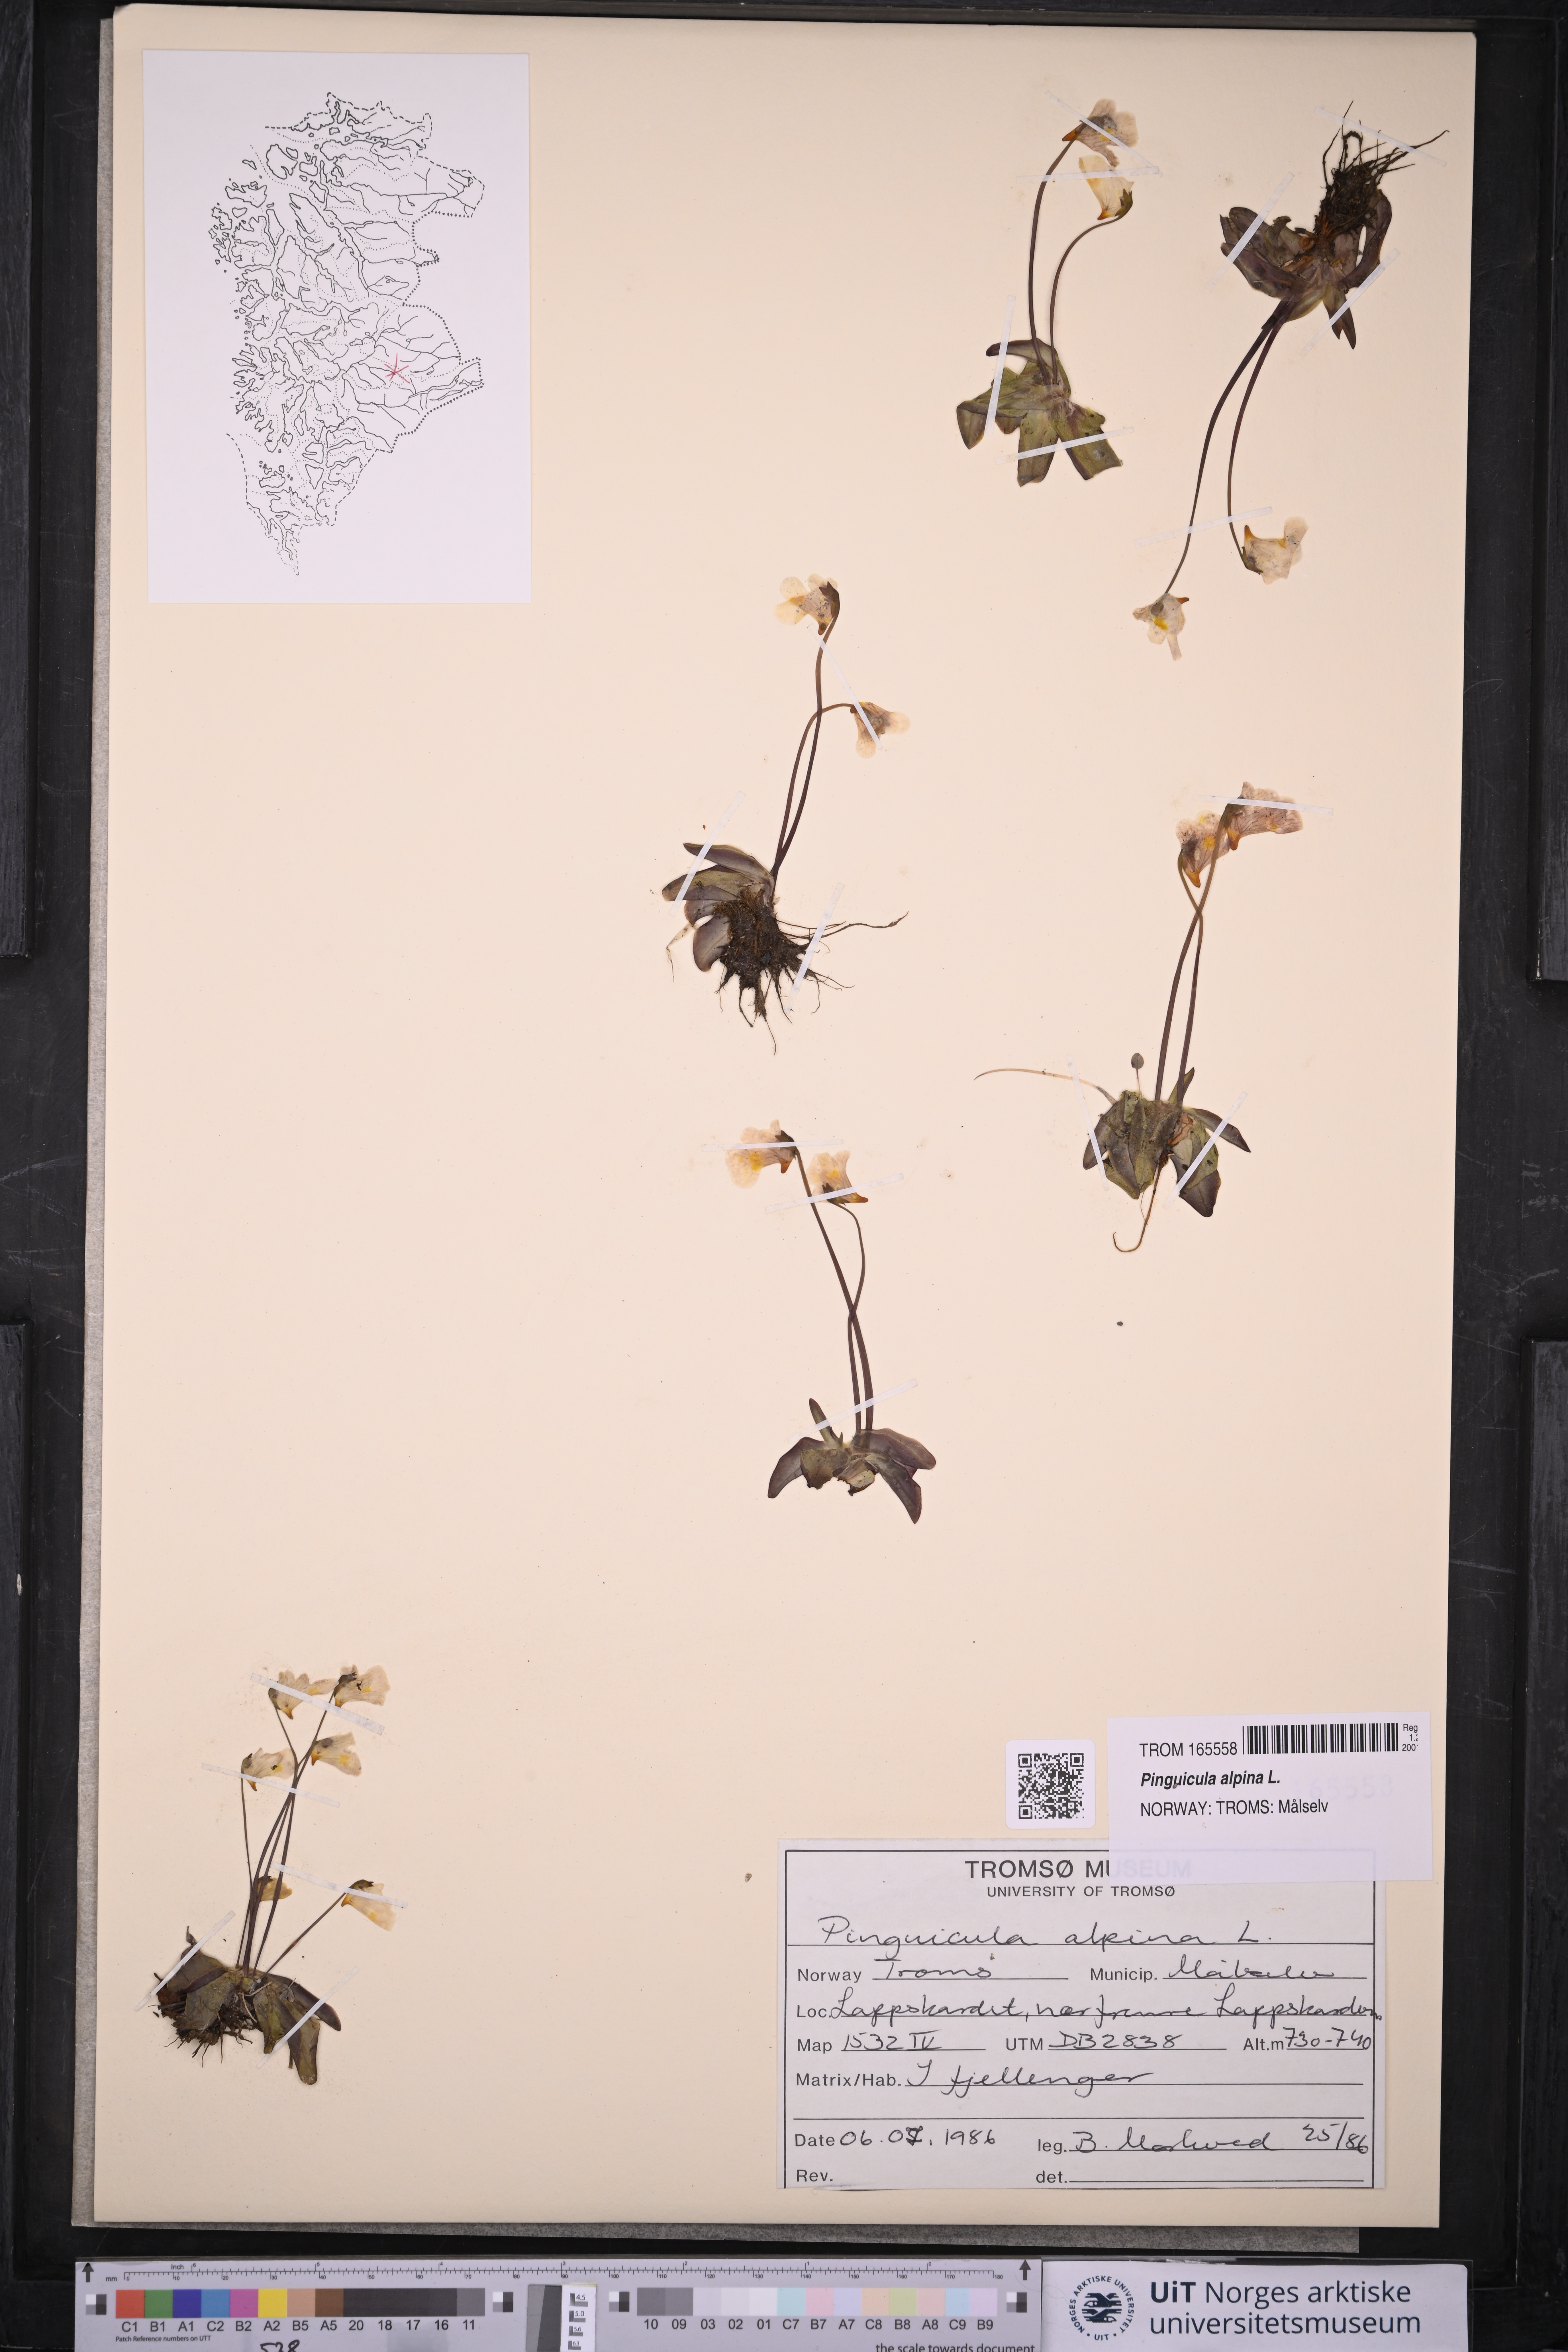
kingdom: Plantae
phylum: Tracheophyta
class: Magnoliopsida
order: Lamiales
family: Lentibulariaceae
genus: Pinguicula
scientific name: Pinguicula alpina
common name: Alpine butterwort
